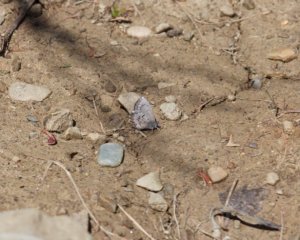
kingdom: Animalia
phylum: Arthropoda
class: Insecta
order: Lepidoptera
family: Lycaenidae
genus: Celastrina
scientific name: Celastrina lucia
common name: Northern Spring Azure
